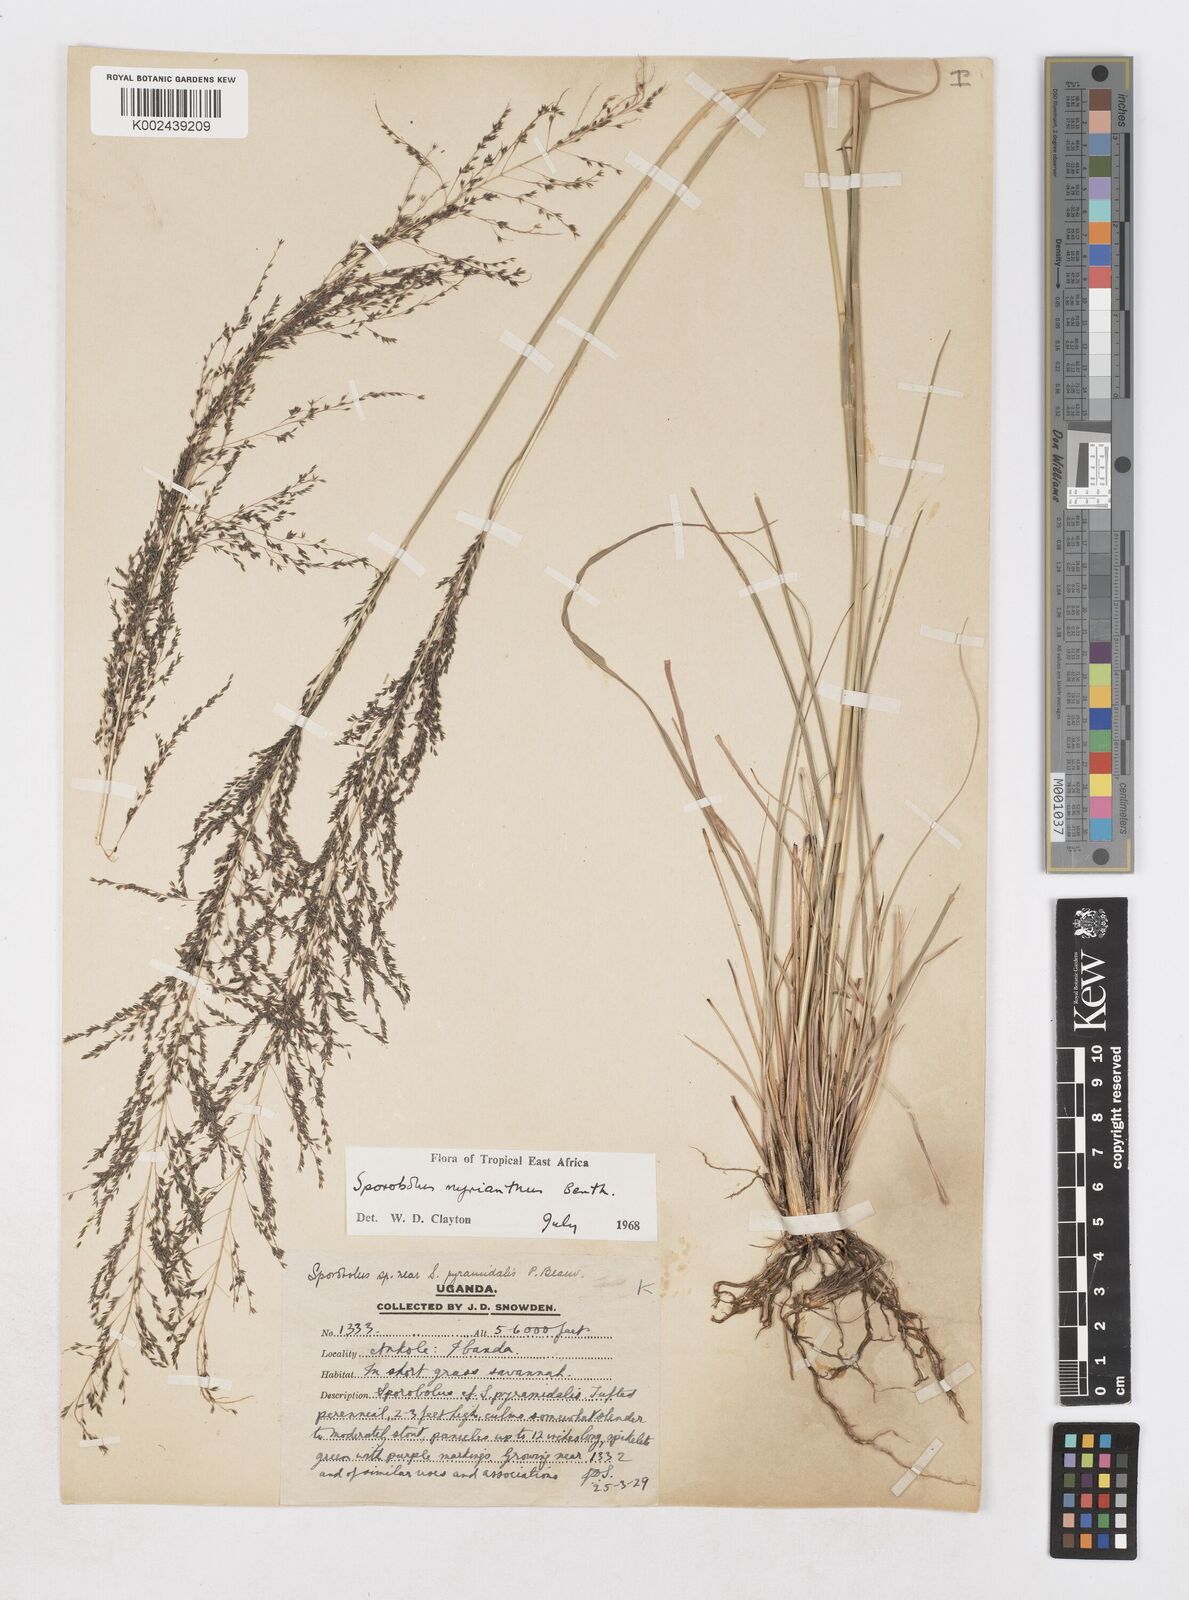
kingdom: Plantae
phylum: Tracheophyta
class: Liliopsida
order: Poales
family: Poaceae
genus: Sporobolus
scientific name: Sporobolus myrianthus
